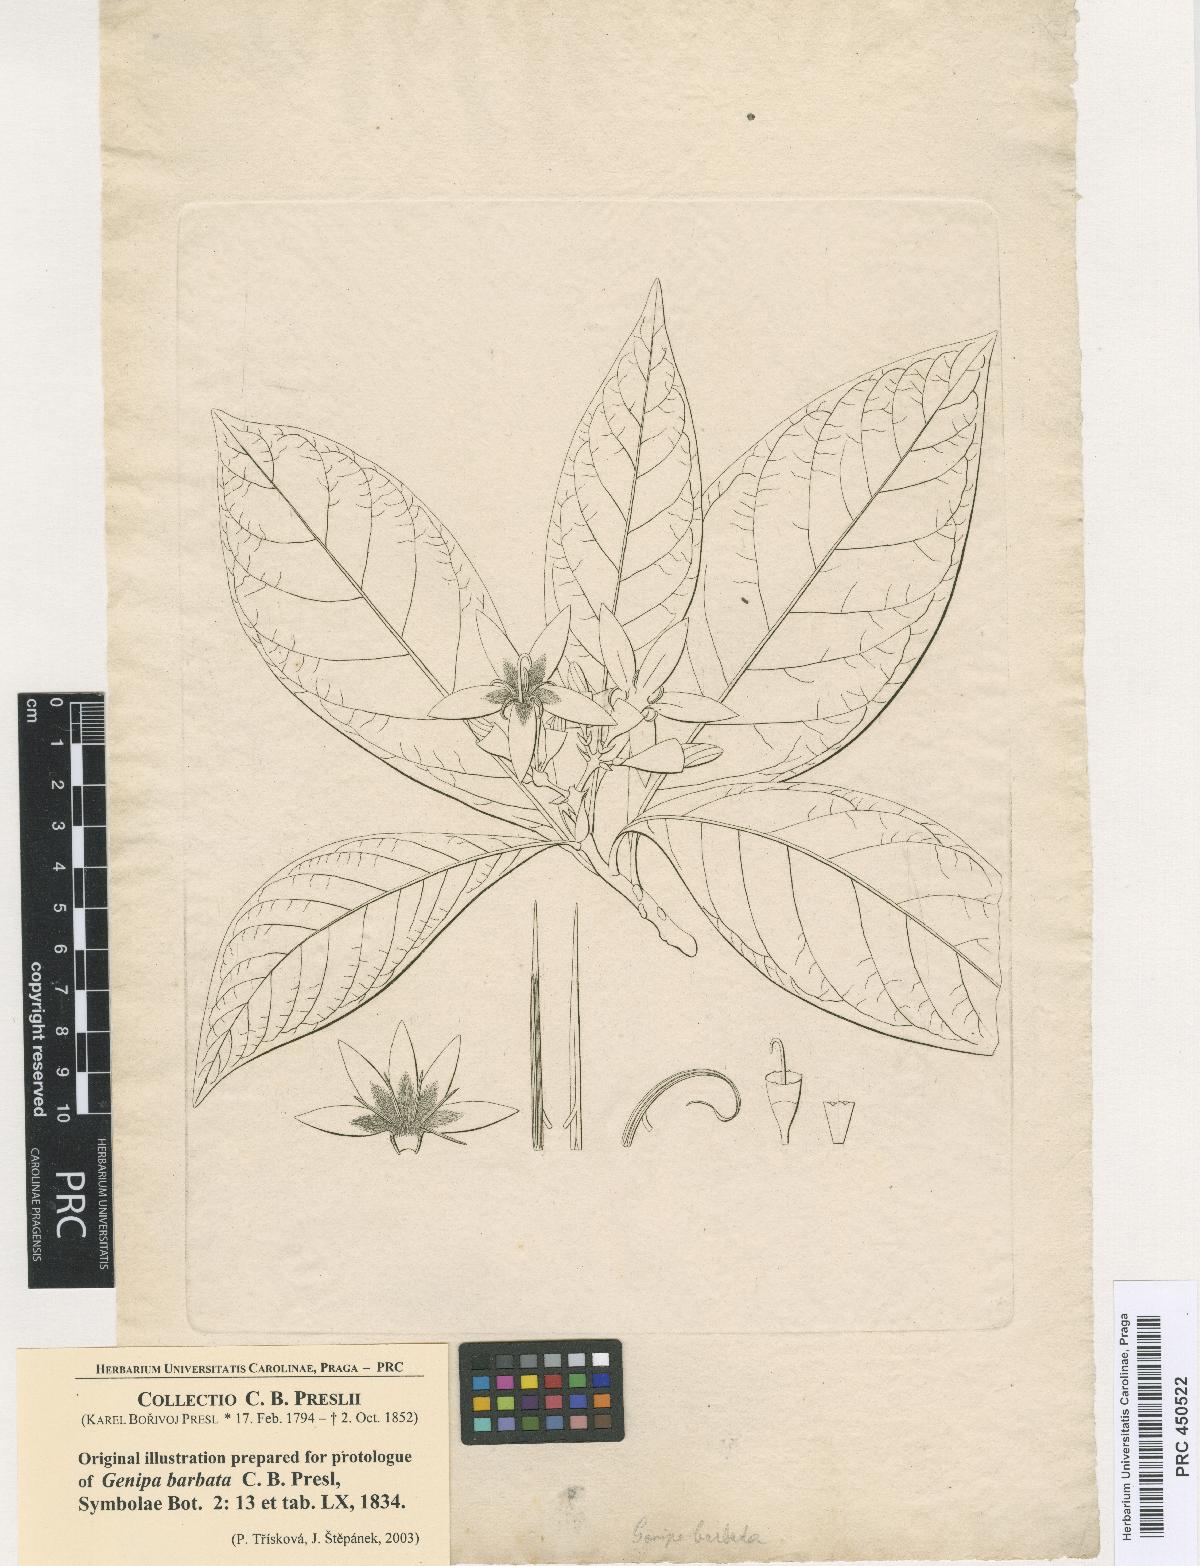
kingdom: Plantae
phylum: Tracheophyta
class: Magnoliopsida
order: Gentianales
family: Rubiaceae
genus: Genipa
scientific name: Genipa americana
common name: Genipap
